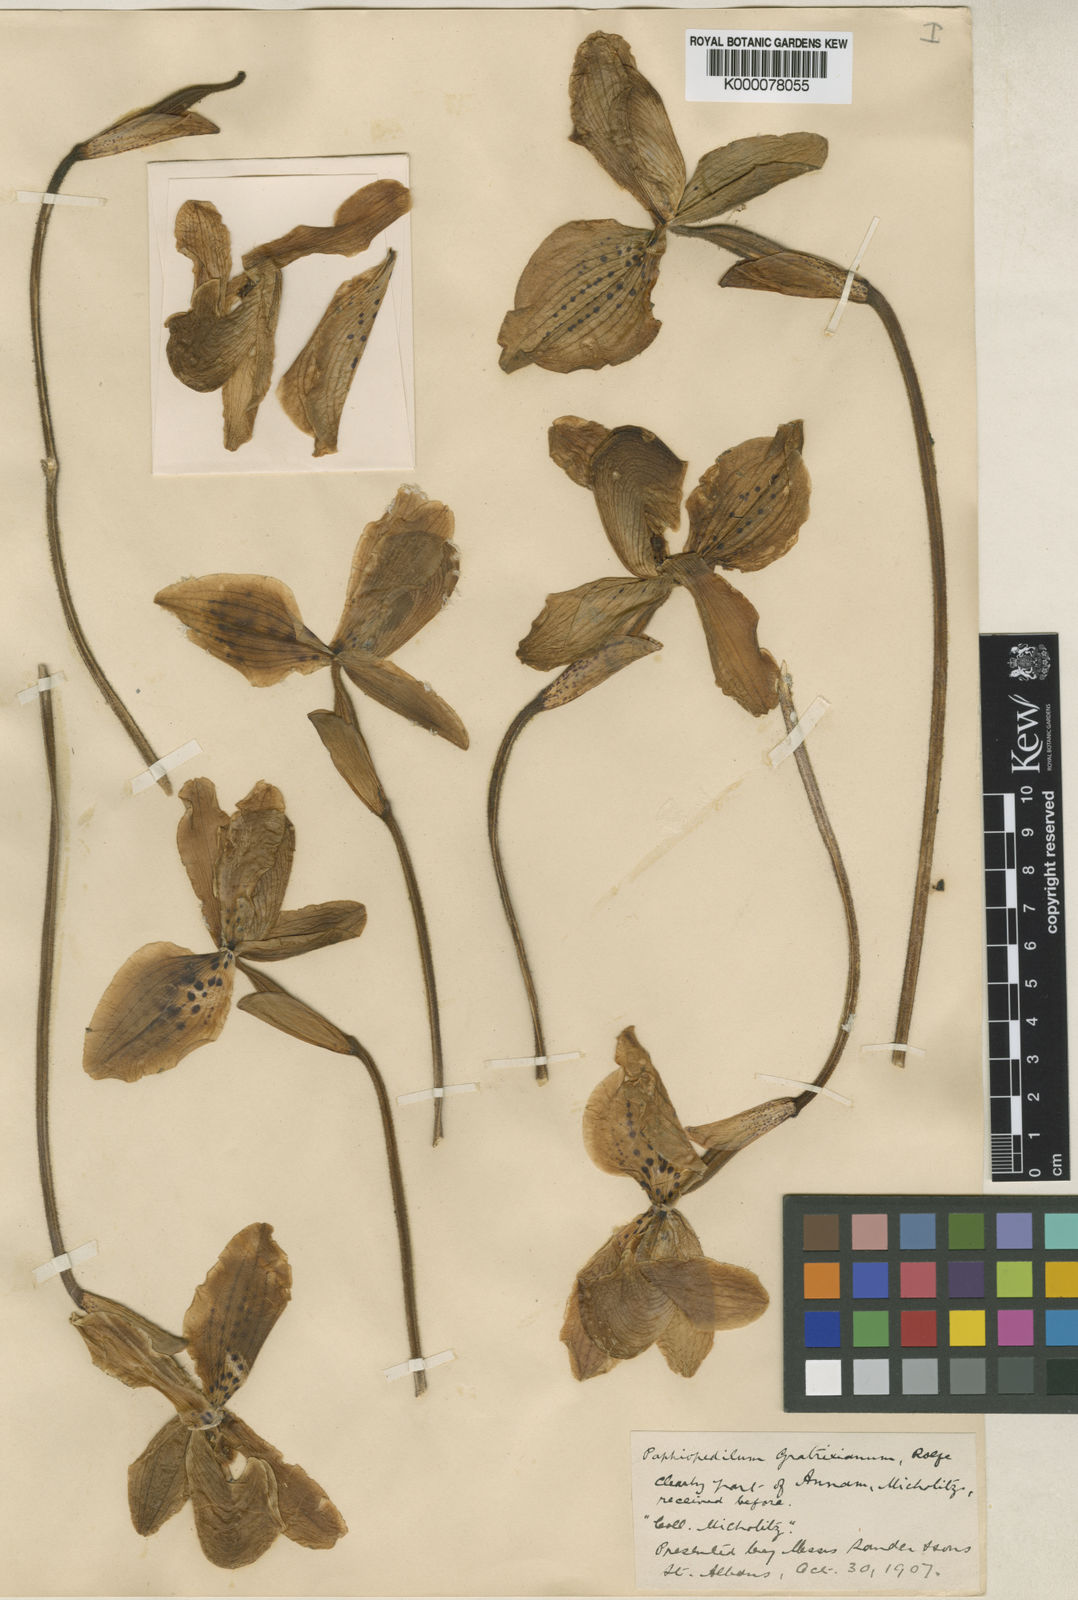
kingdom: Plantae
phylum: Tracheophyta
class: Liliopsida
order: Asparagales
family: Orchidaceae
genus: Paphiopedilum
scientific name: Paphiopedilum gratrixianum
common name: Gratix's paphiopedilum
